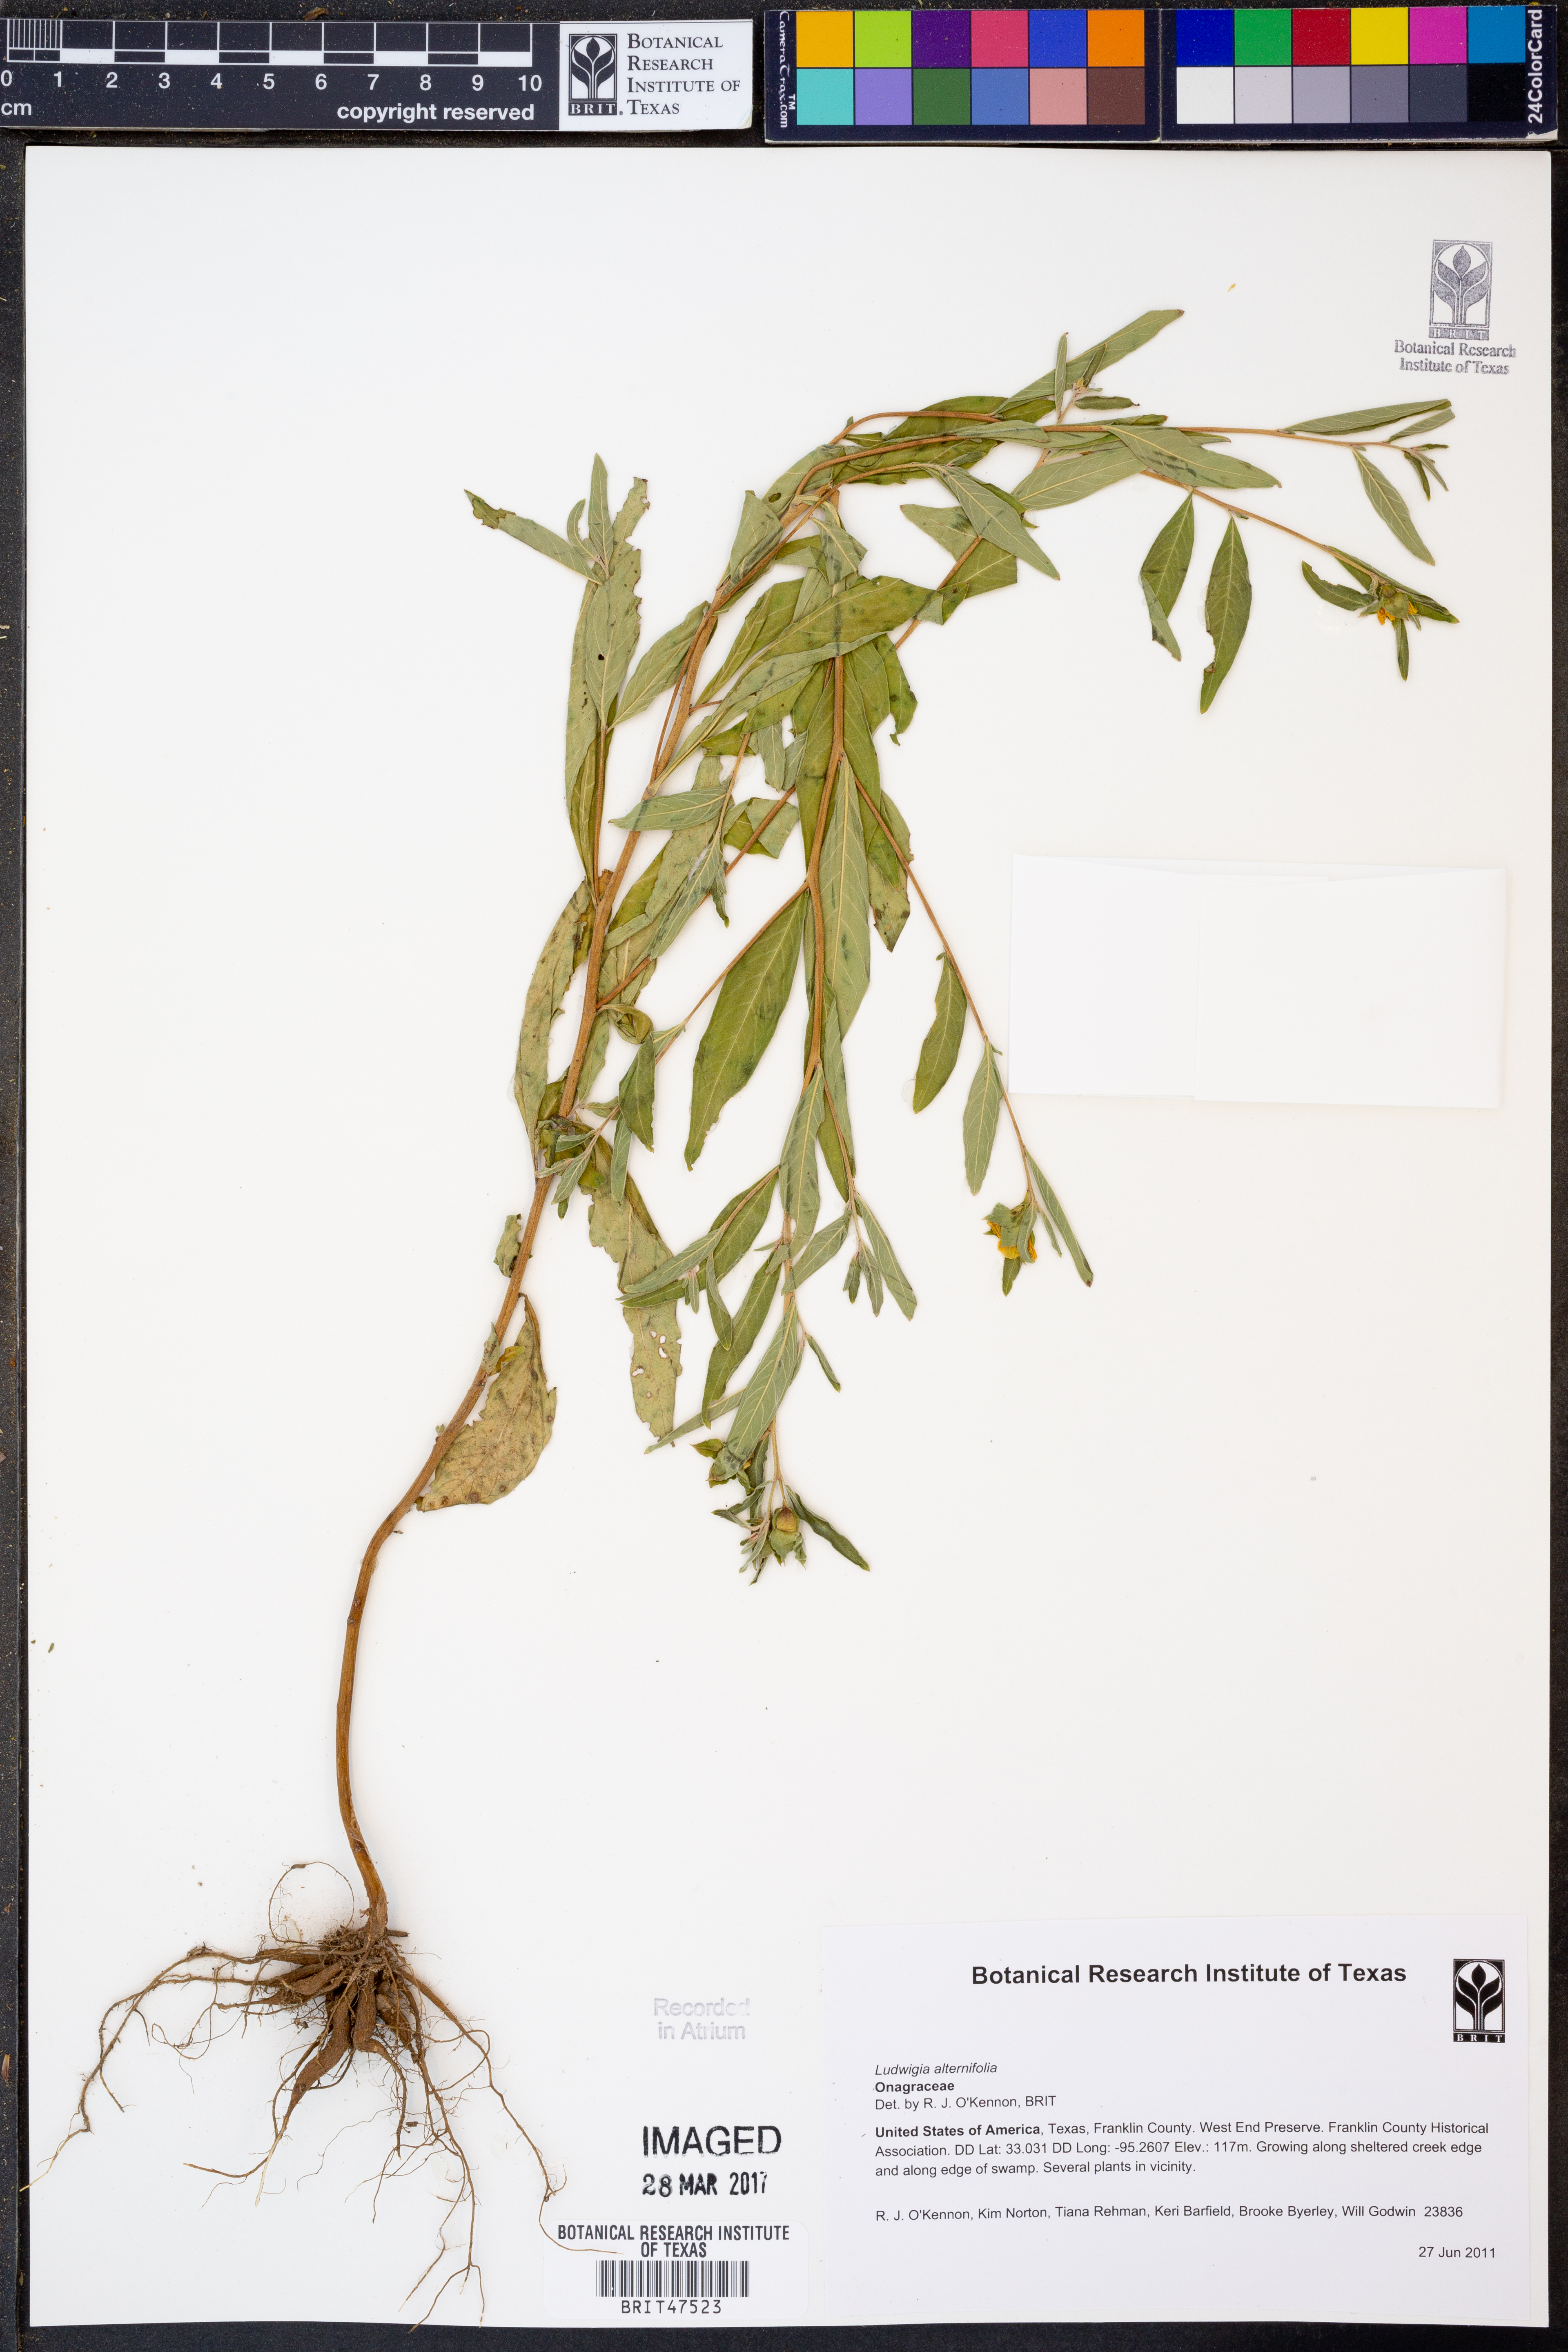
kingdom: Plantae
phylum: Tracheophyta
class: Magnoliopsida
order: Myrtales
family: Onagraceae
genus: Ludwigia
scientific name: Ludwigia alternifolia
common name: Rattlebox
